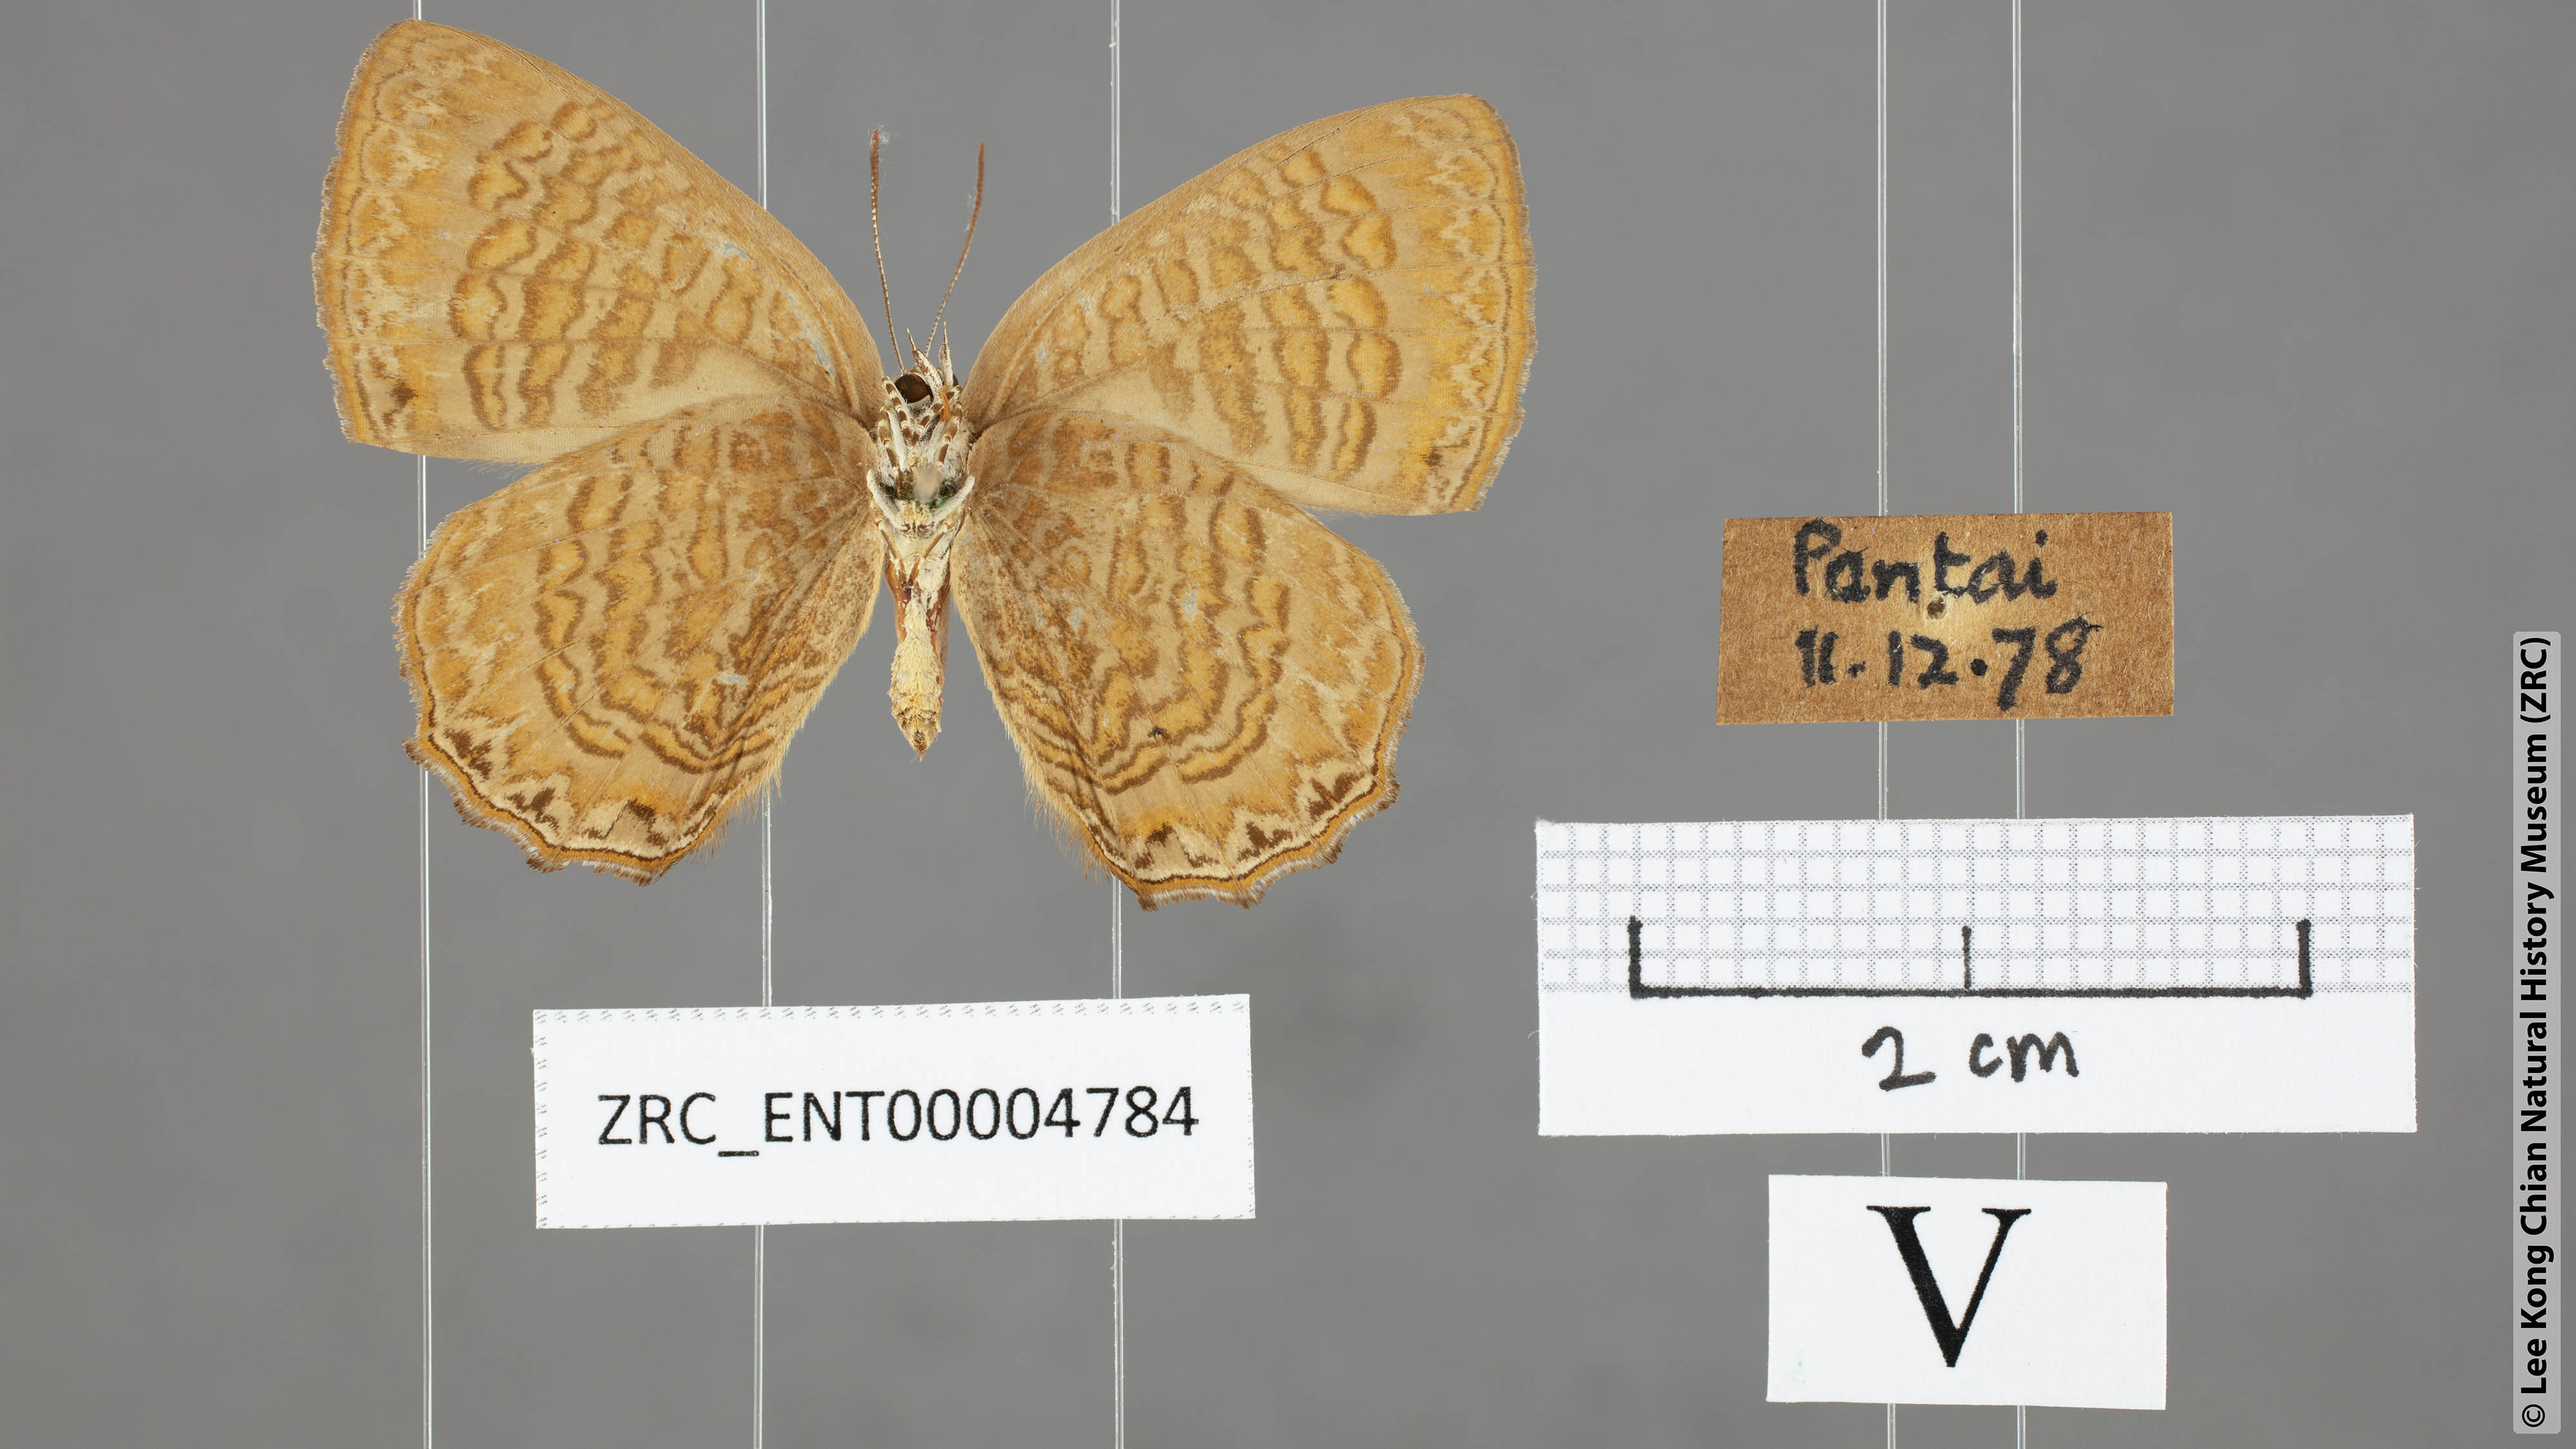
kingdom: Animalia
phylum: Arthropoda
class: Insecta
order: Lepidoptera
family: Lycaenidae
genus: Poritia
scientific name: Poritia sumatrae
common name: Sumatran gem
